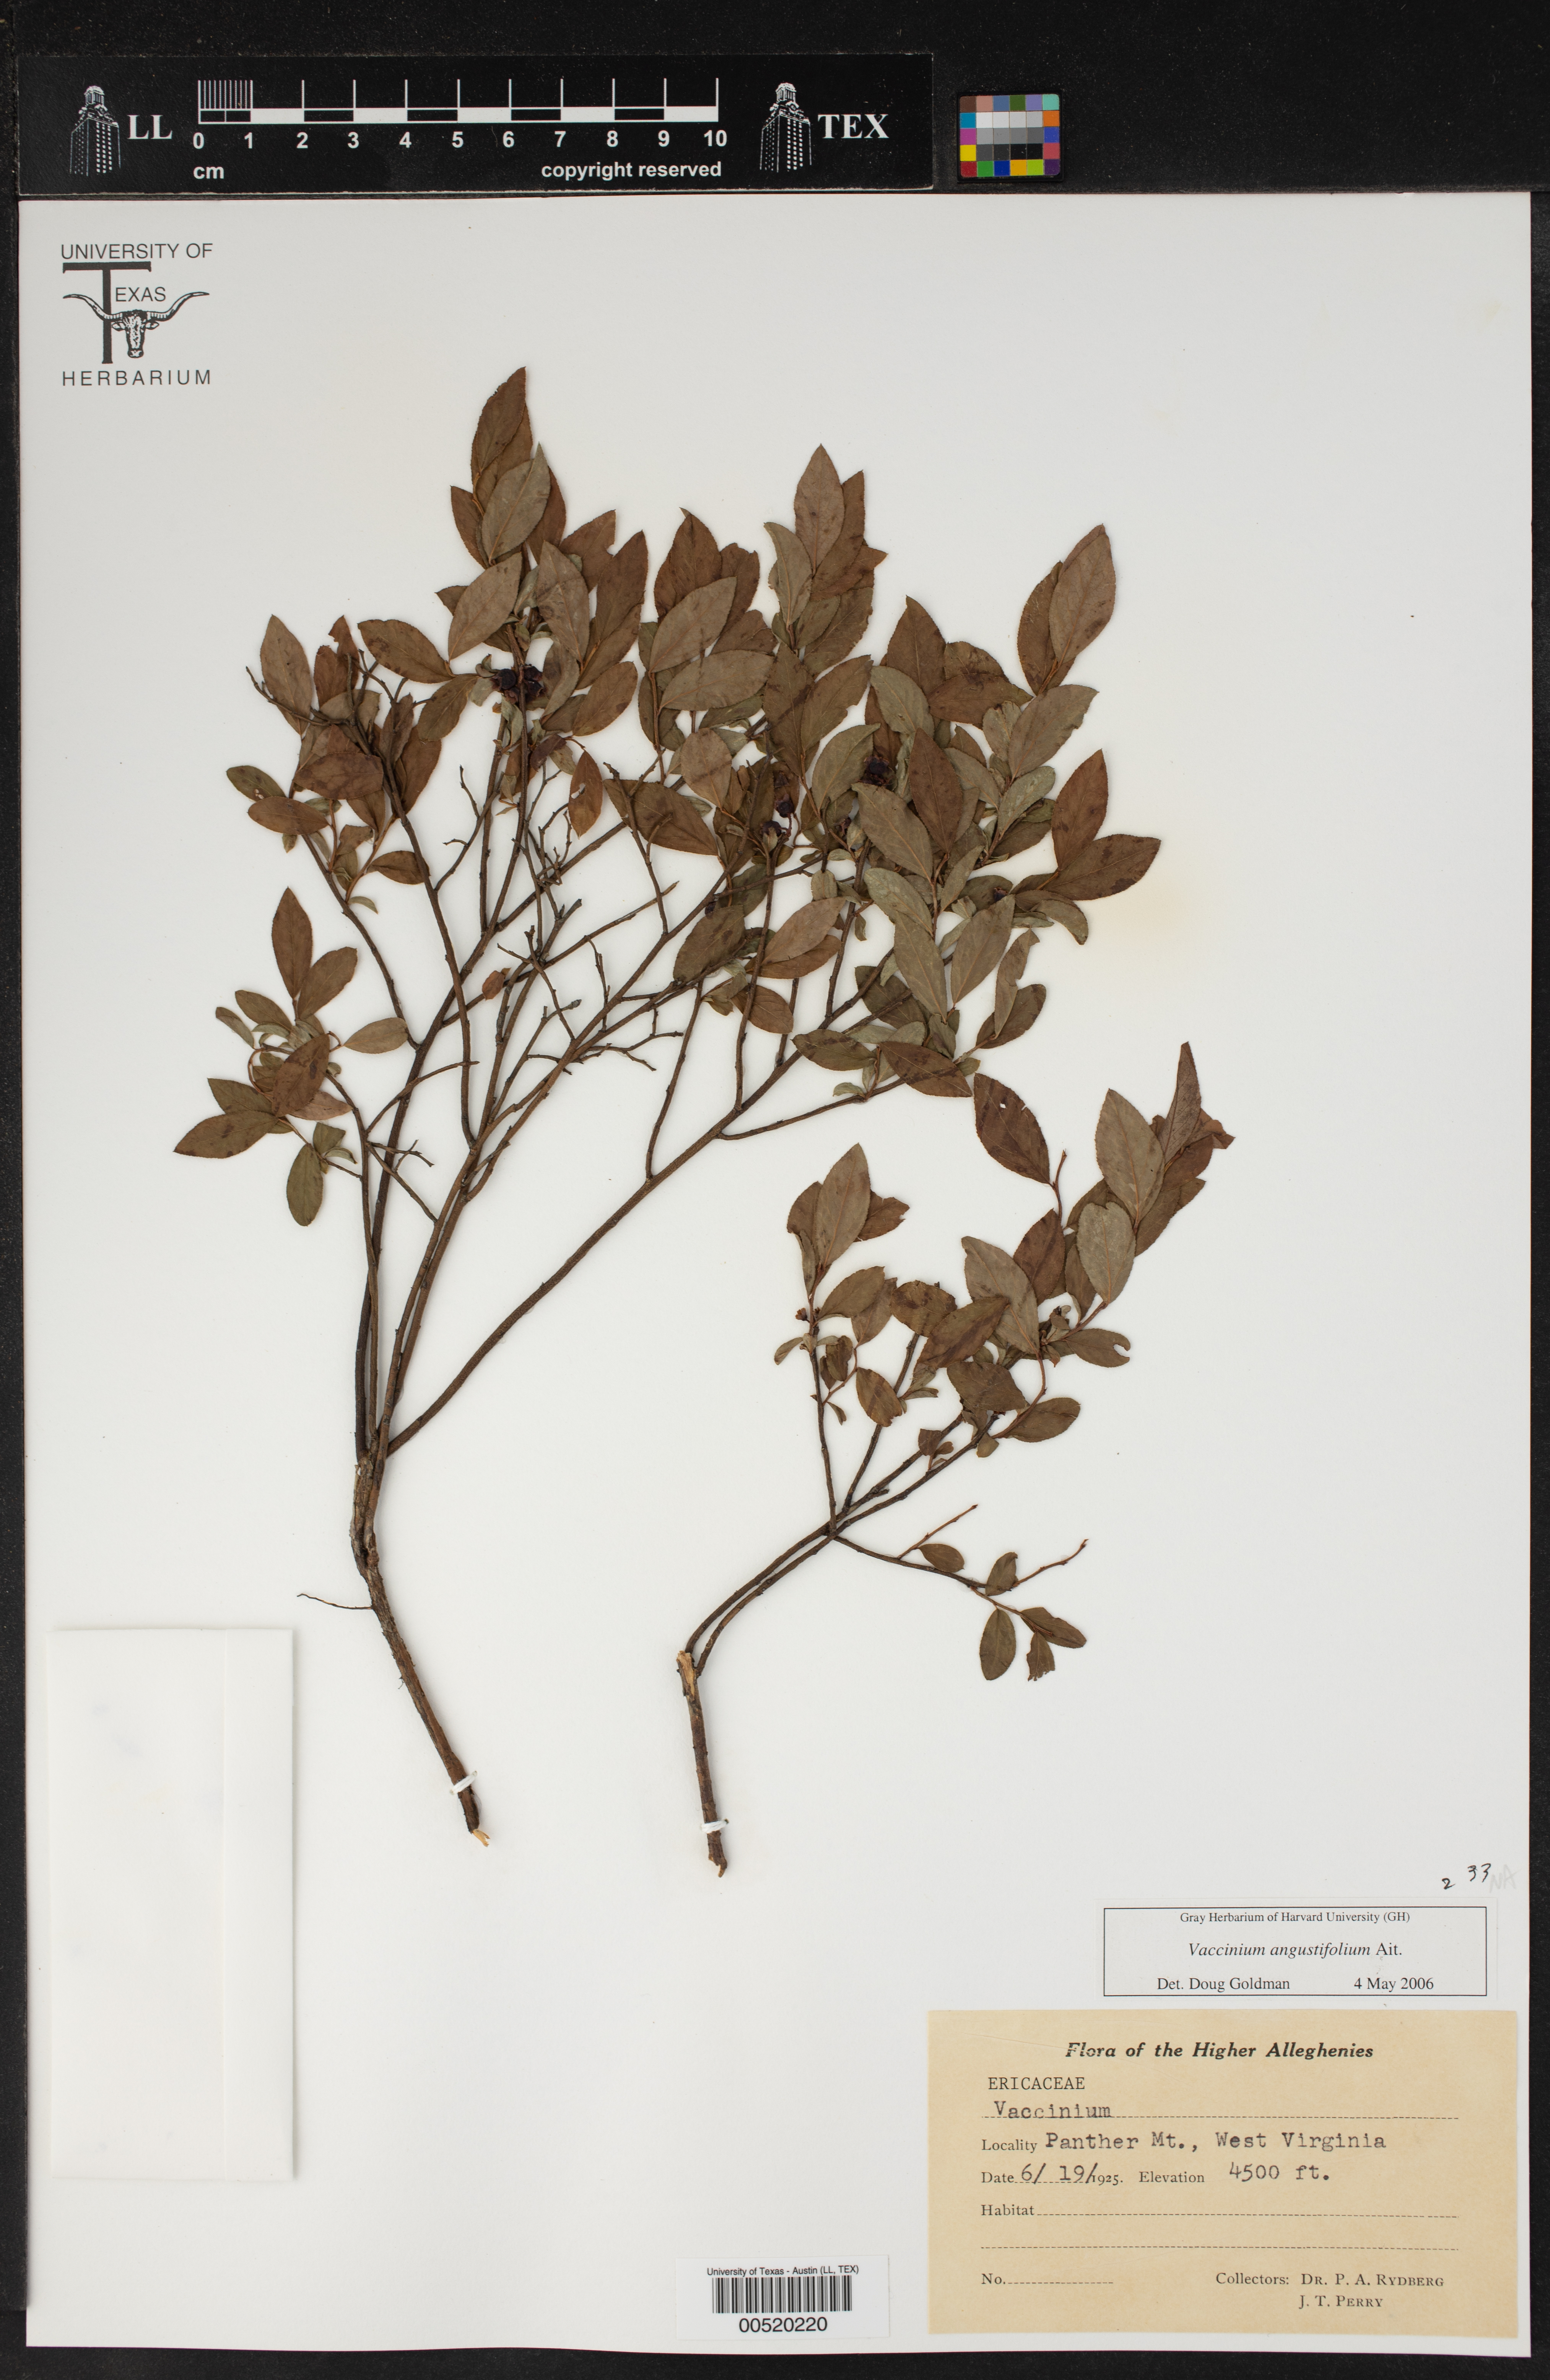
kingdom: Plantae
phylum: Tracheophyta
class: Magnoliopsida
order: Ericales
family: Ericaceae
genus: Vaccinium
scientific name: Vaccinium angustifolium
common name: Early lowbush blueberry
